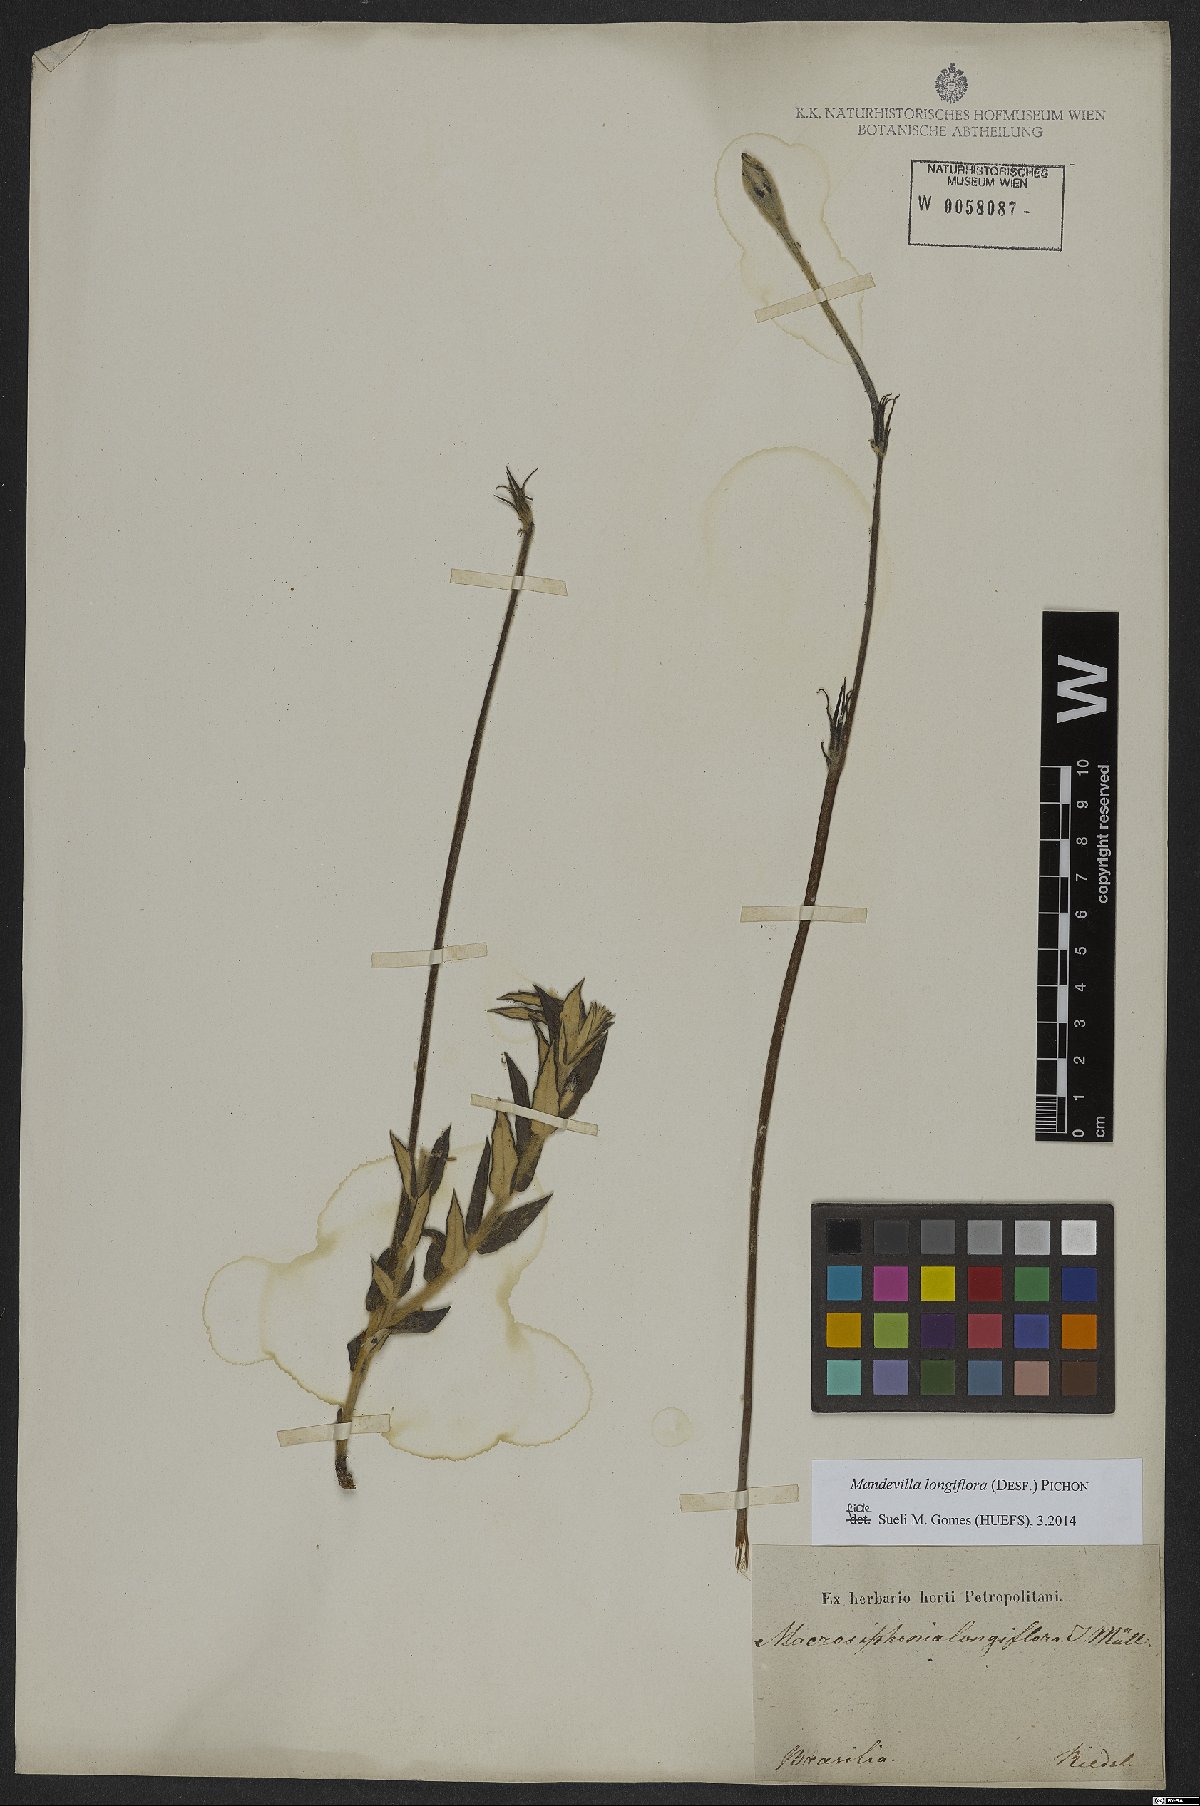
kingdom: Plantae
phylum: Tracheophyta
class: Magnoliopsida
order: Gentianales
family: Apocynaceae
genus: Mandevilla
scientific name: Mandevilla longiflora
